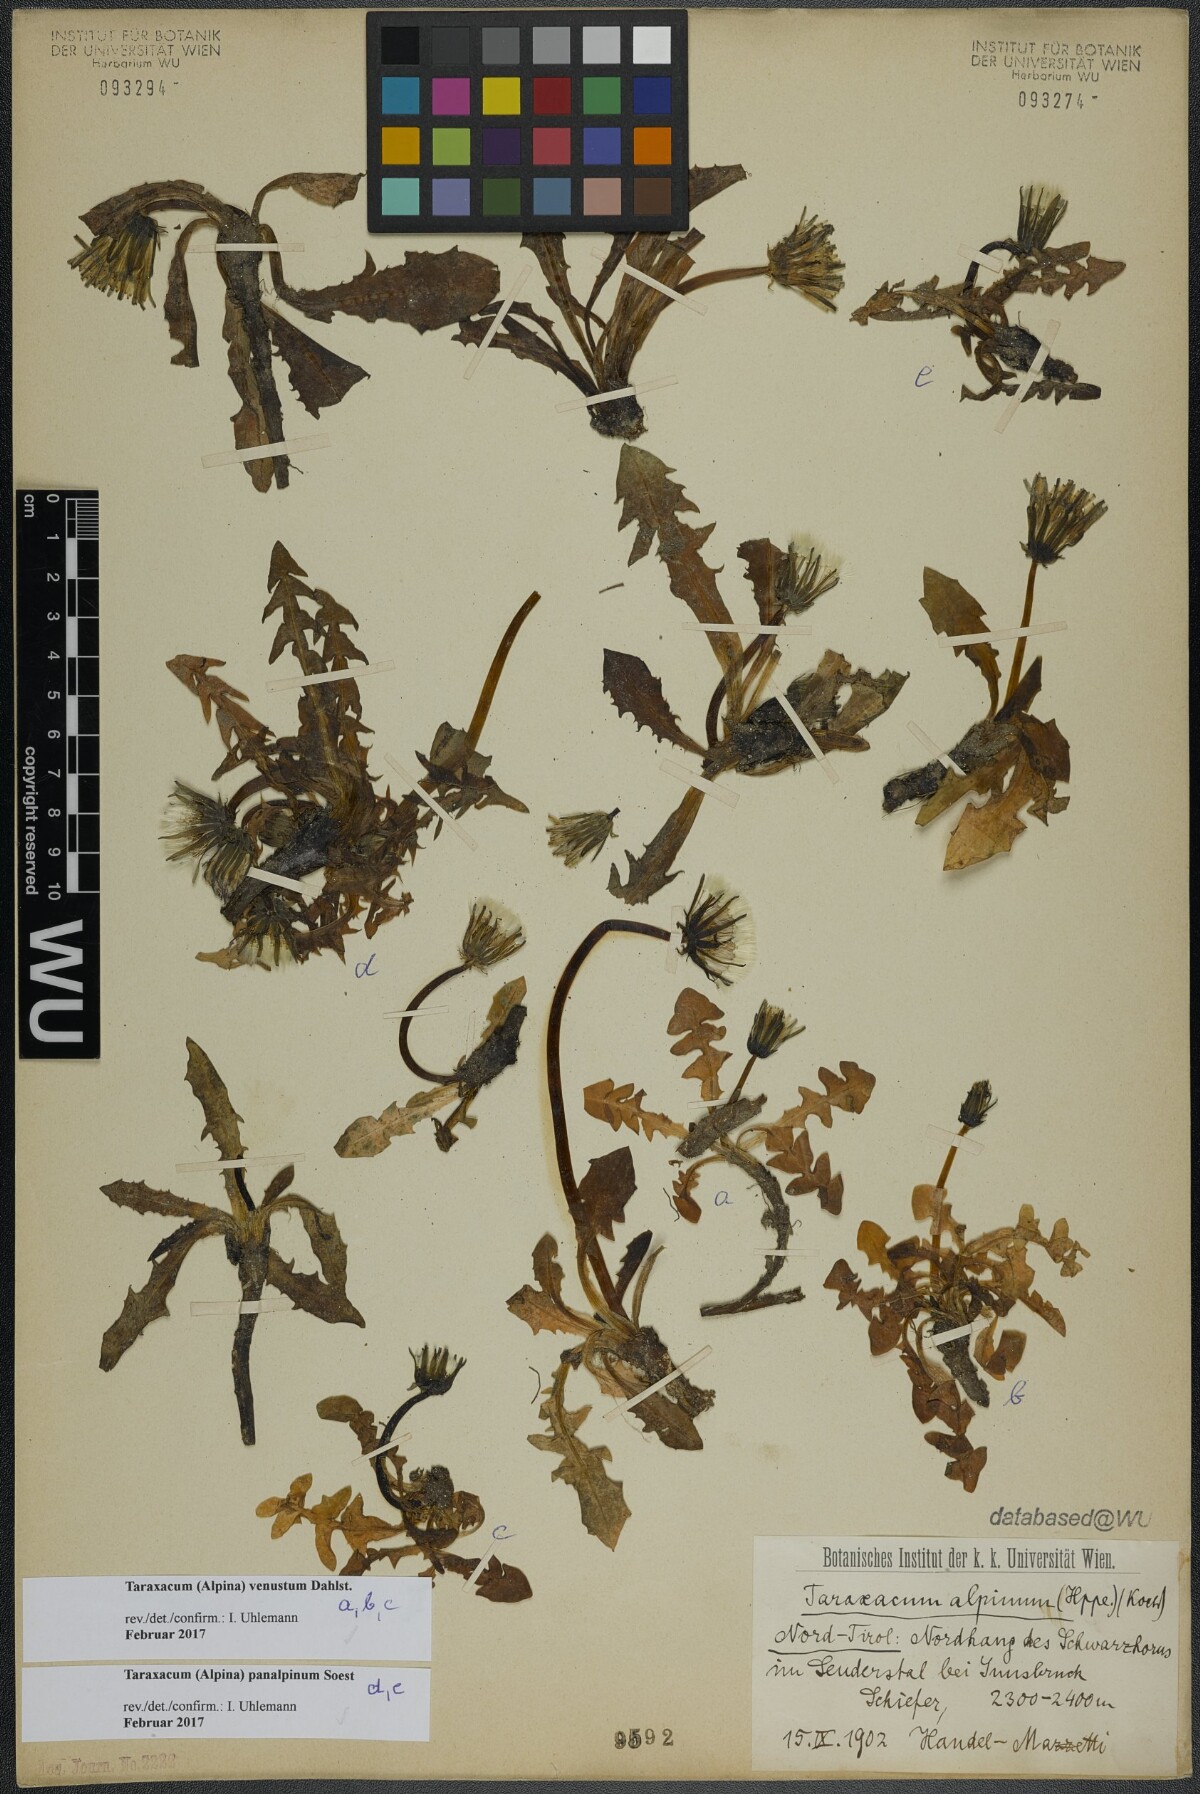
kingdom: Plantae
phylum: Tracheophyta
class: Magnoliopsida
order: Asterales
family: Asteraceae
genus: Taraxacum
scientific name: Taraxacum venustum
